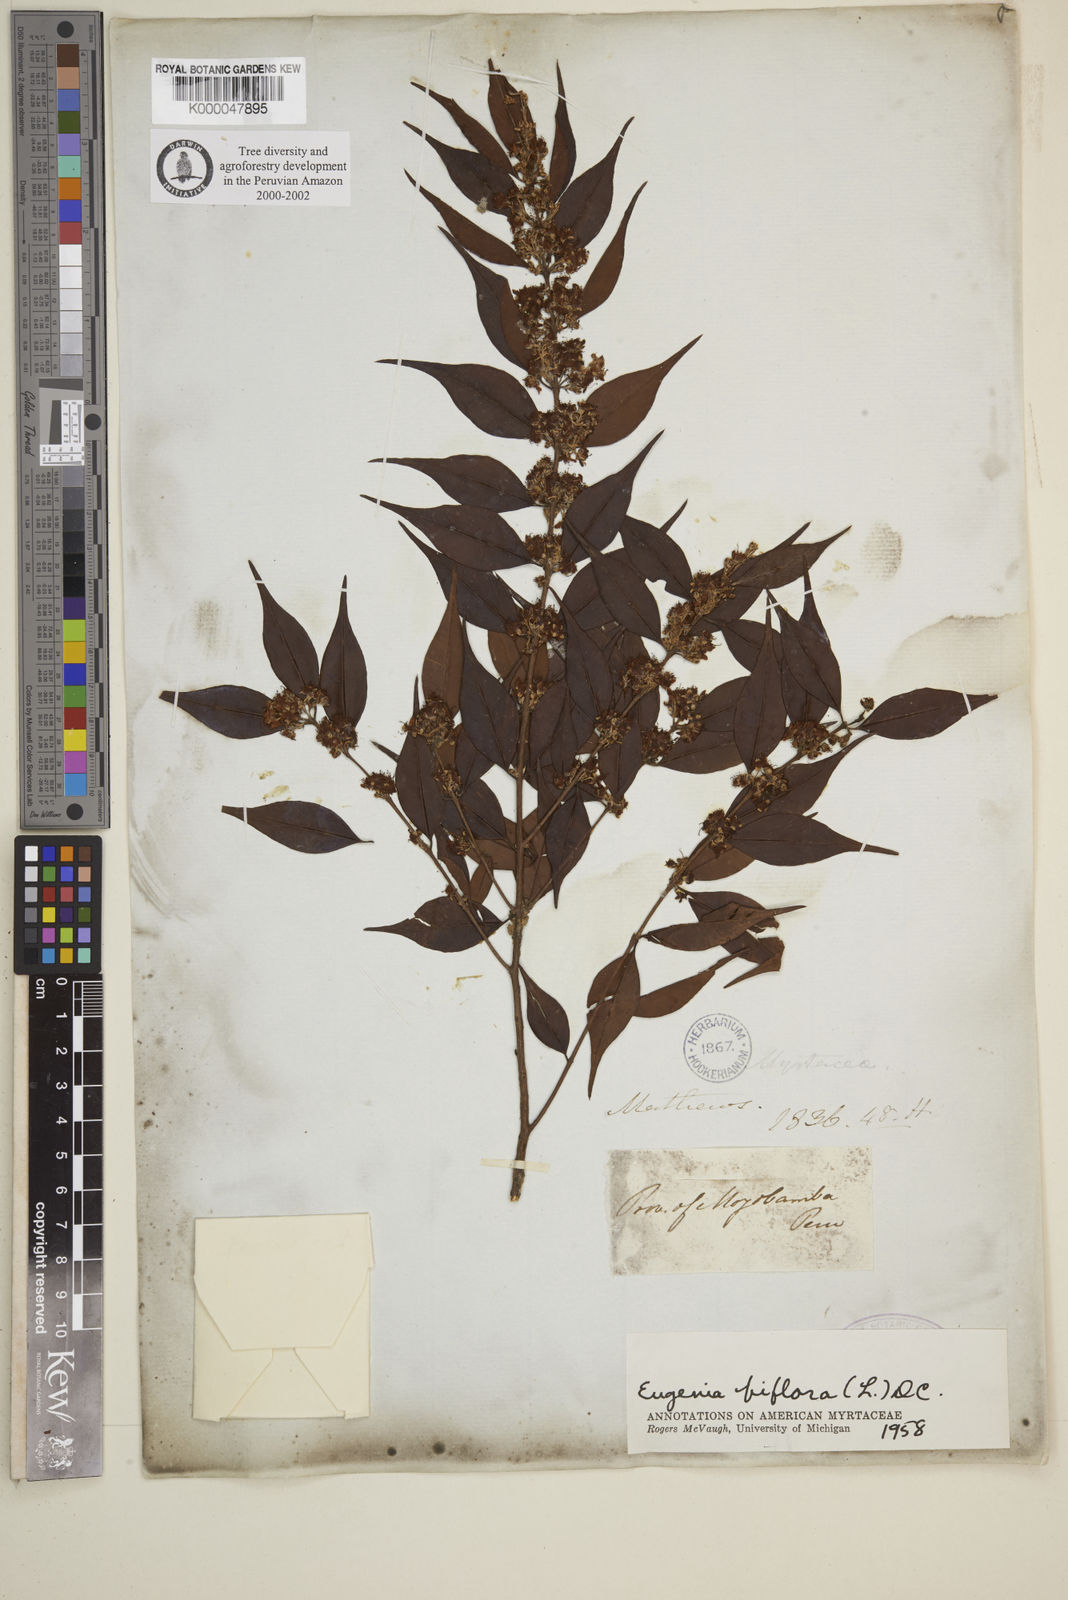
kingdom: Plantae
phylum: Tracheophyta
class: Magnoliopsida
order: Myrtales
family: Myrtaceae
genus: Eugenia
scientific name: Eugenia biflora
